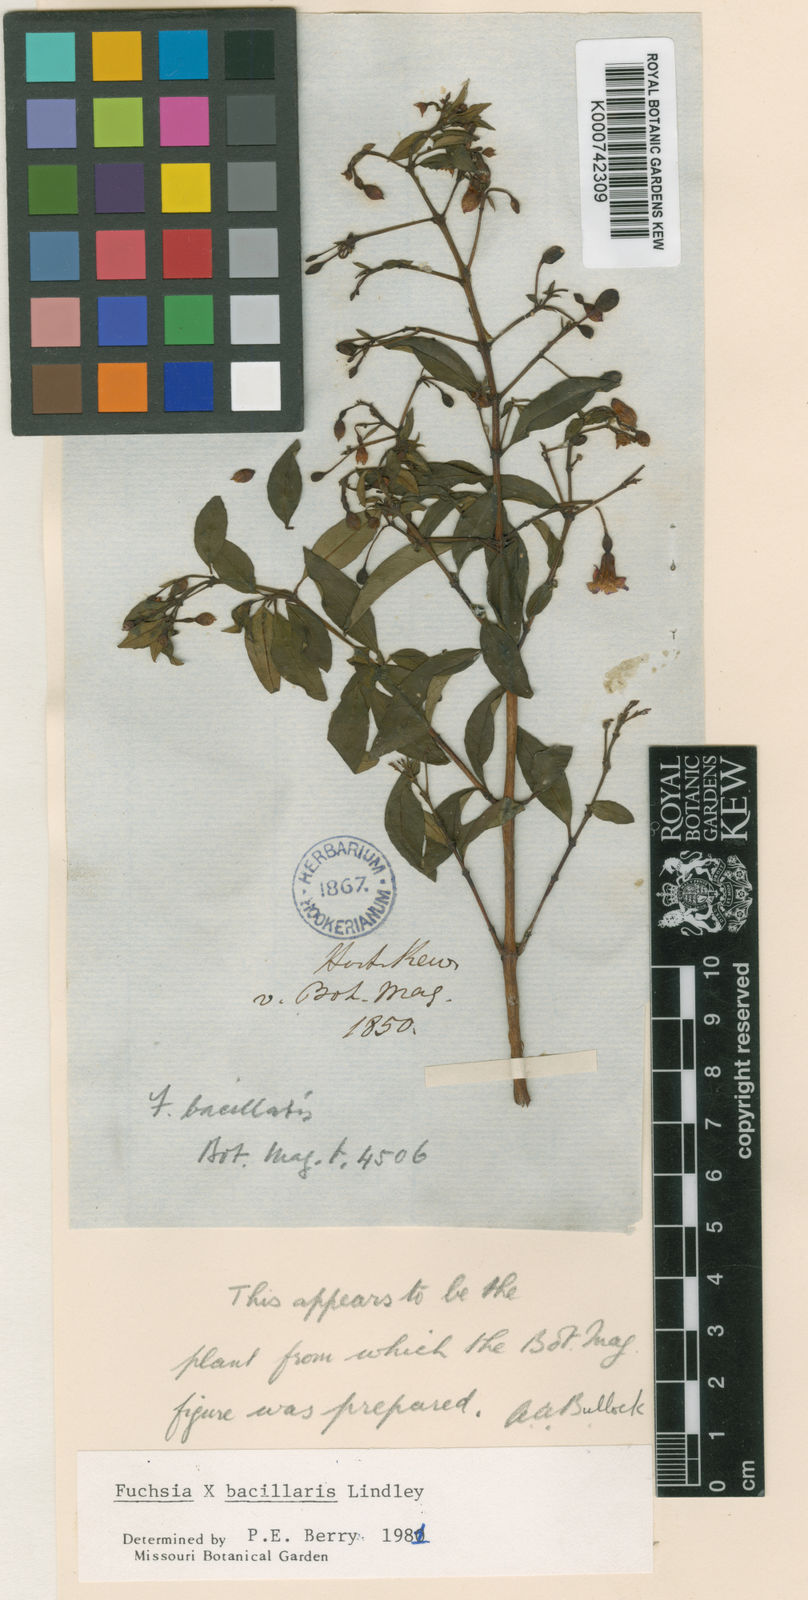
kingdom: Plantae
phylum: Tracheophyta
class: Magnoliopsida
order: Myrtales
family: Onagraceae
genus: Fuchsia
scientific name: Fuchsia bacillaris
